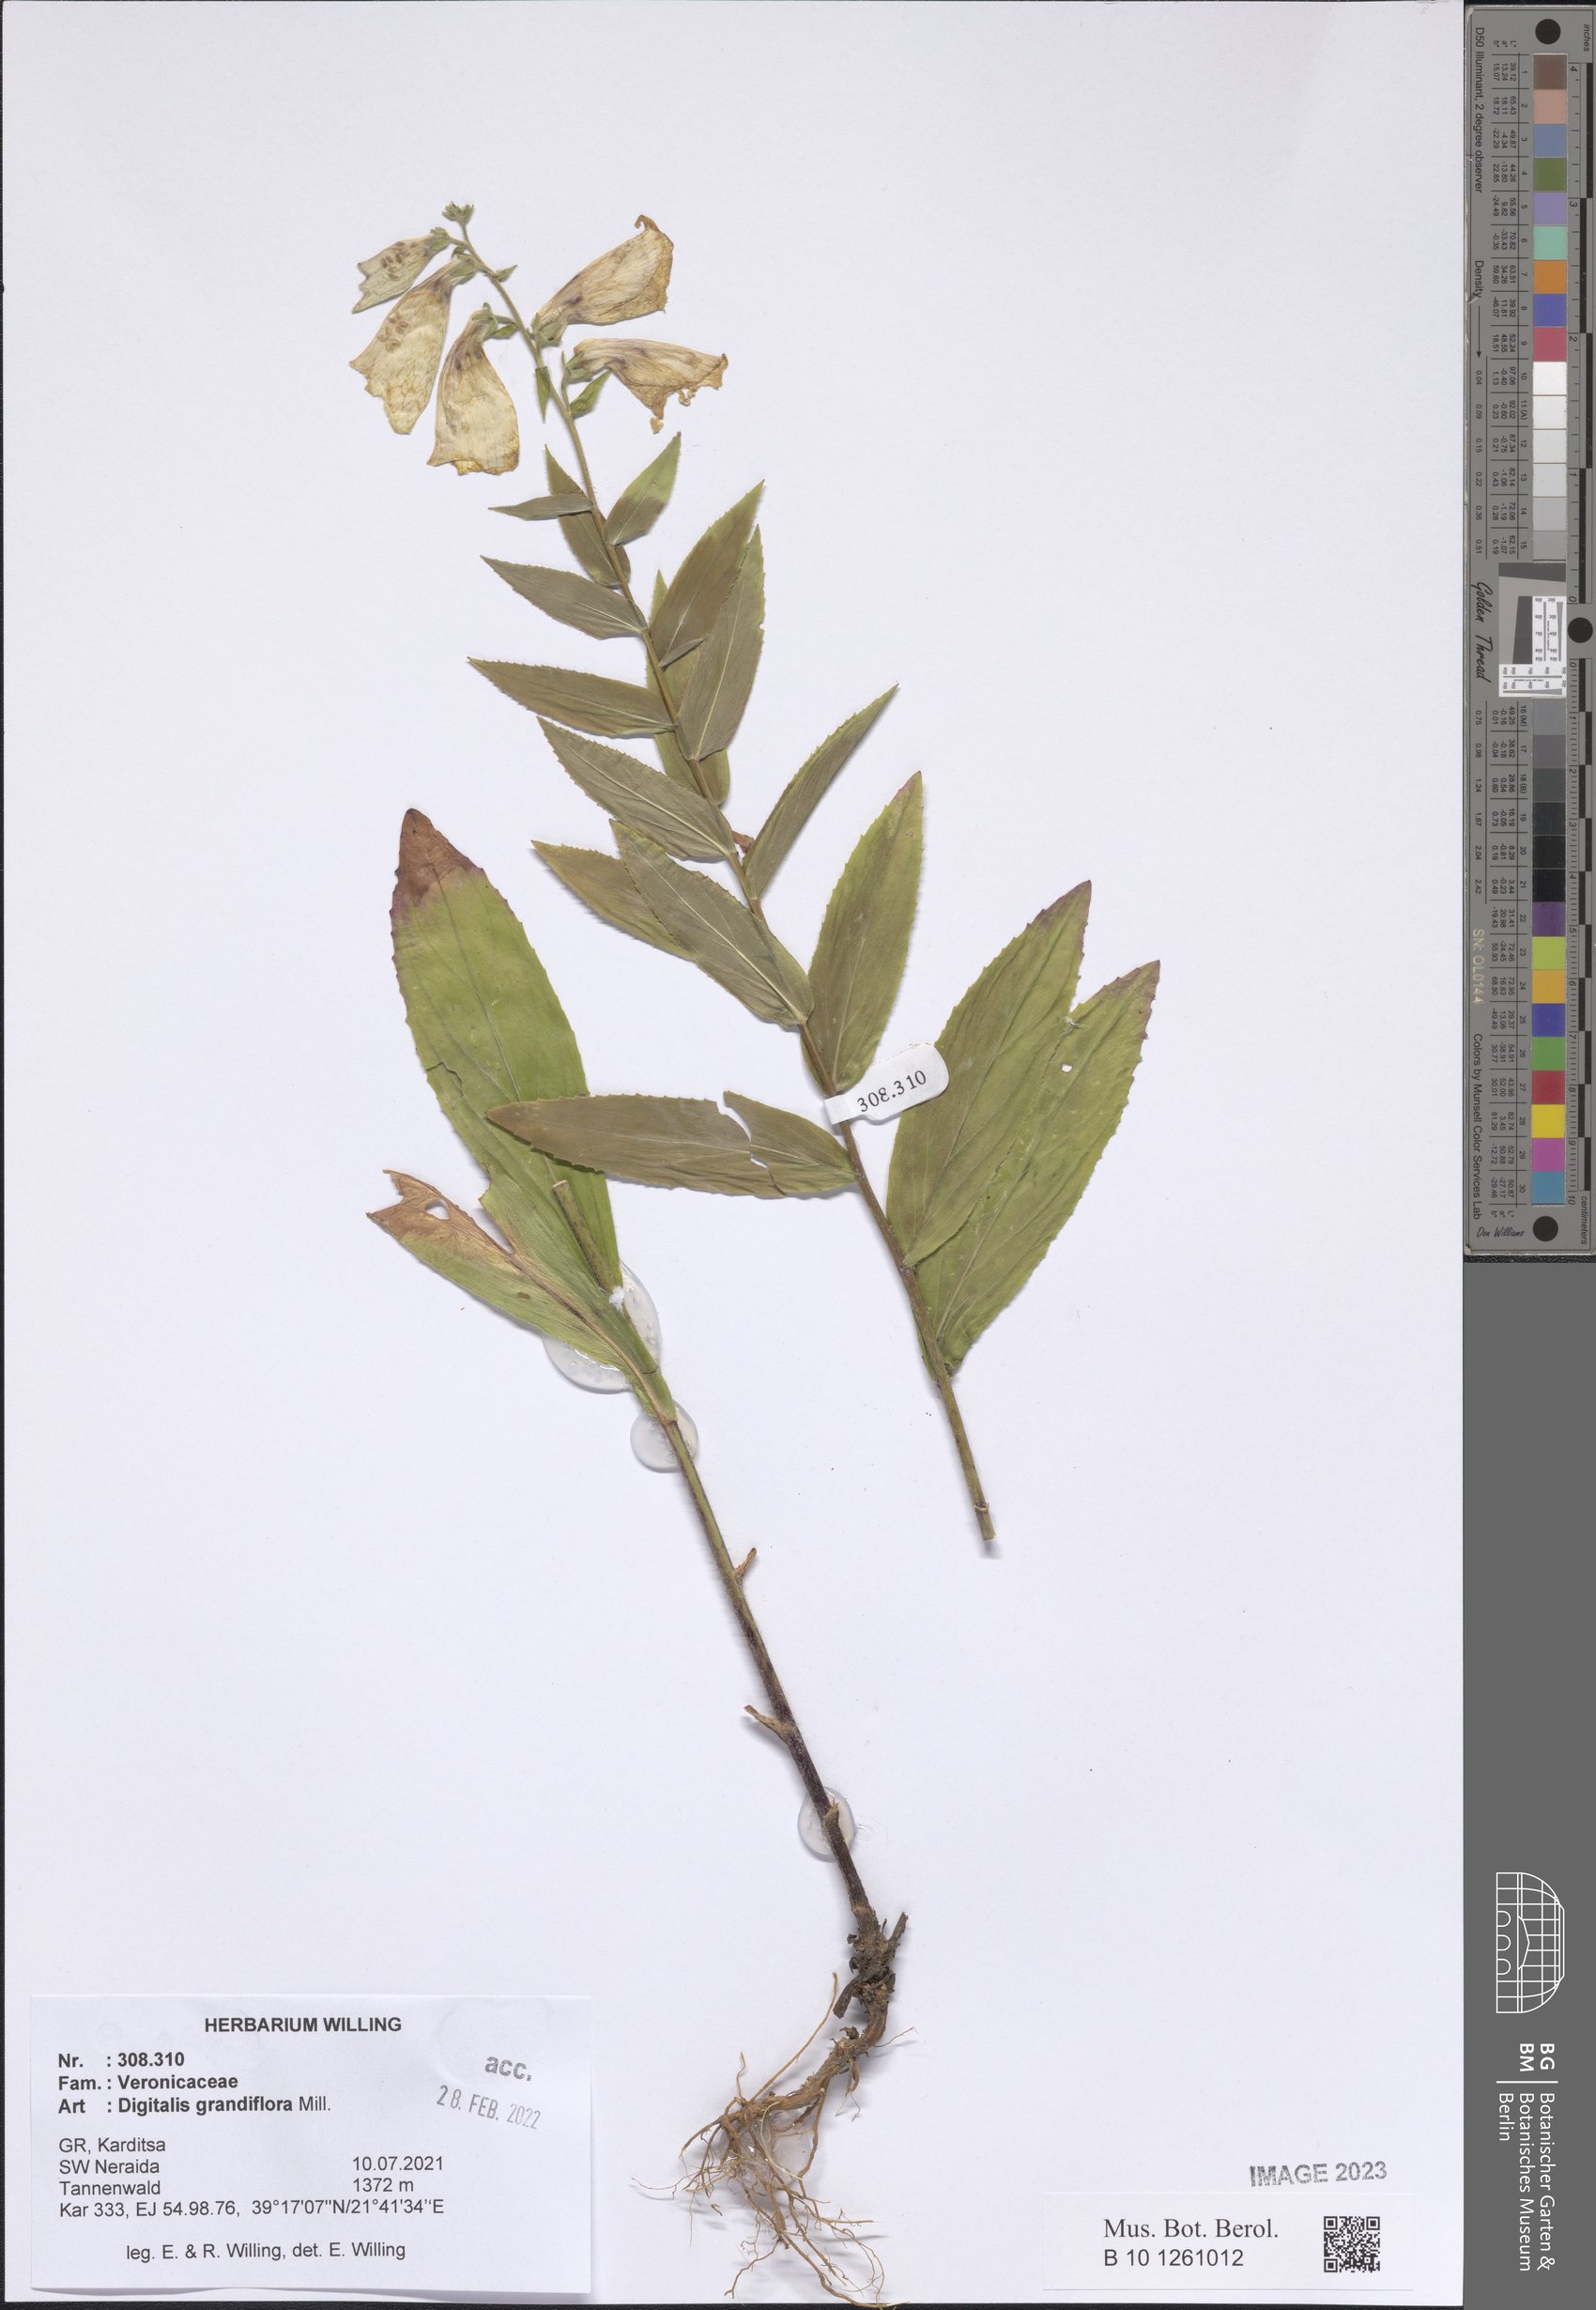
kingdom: Plantae
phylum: Tracheophyta
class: Magnoliopsida
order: Lamiales
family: Plantaginaceae
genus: Digitalis
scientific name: Digitalis grandiflora
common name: Yellow foxglove
